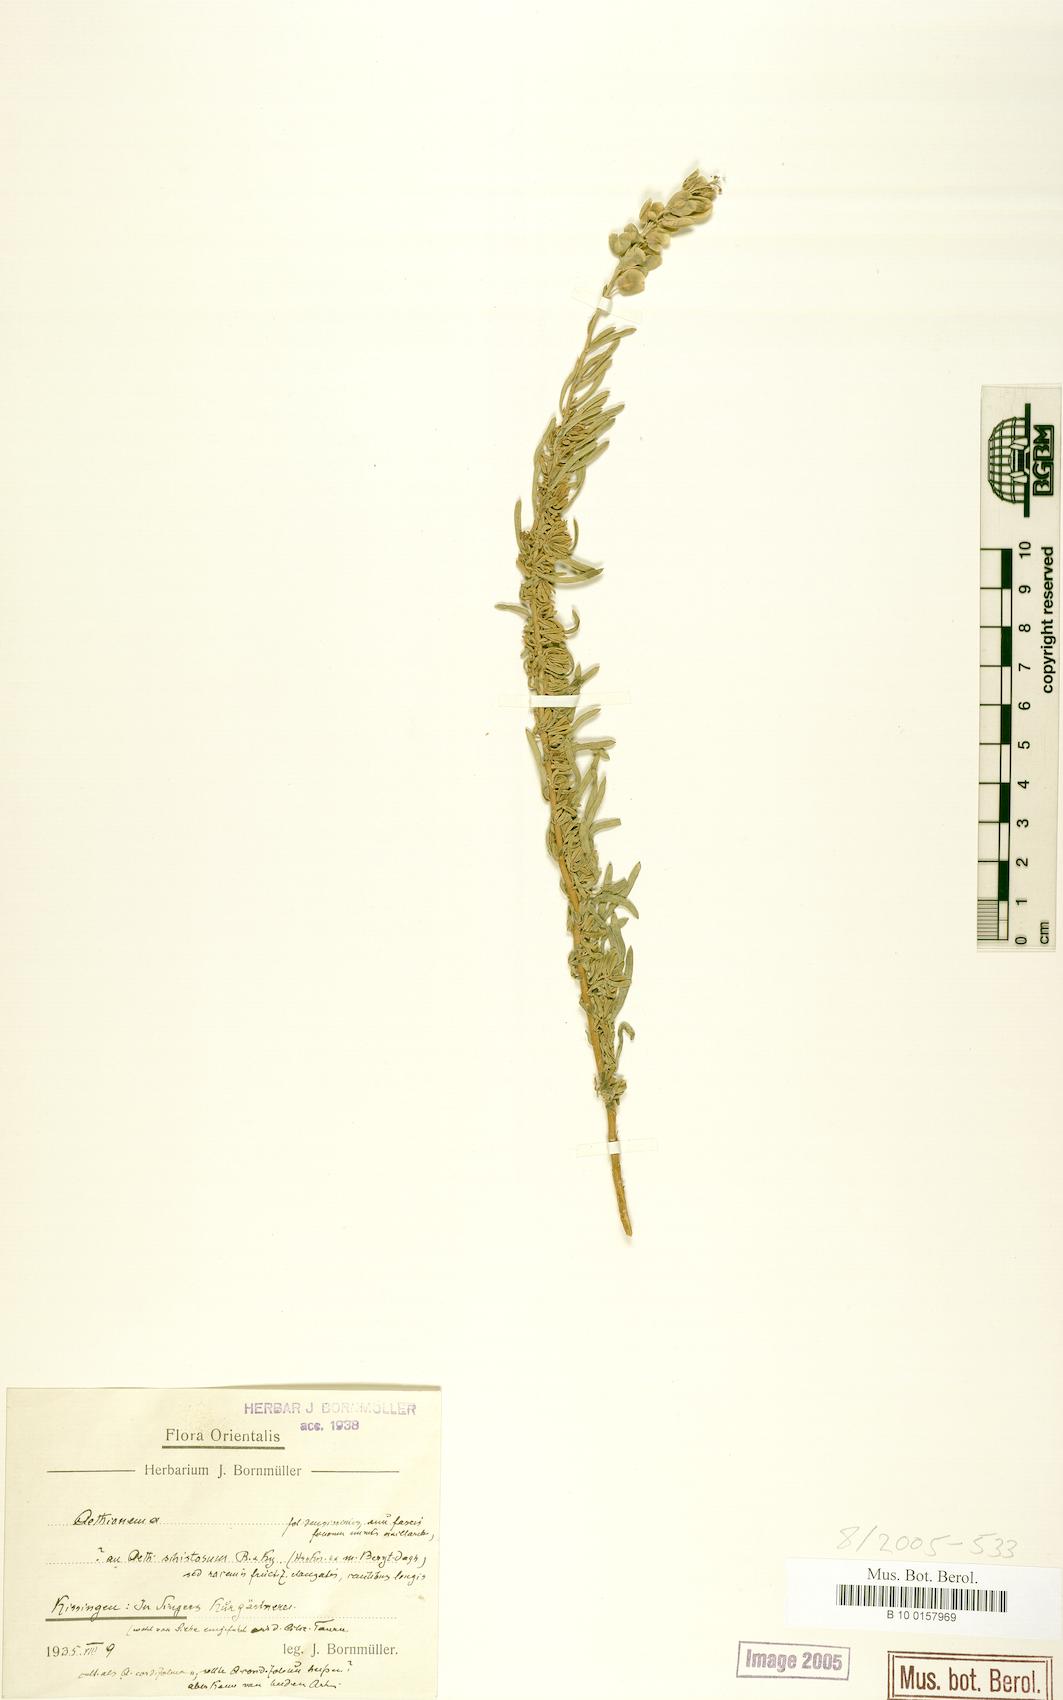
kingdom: Plantae
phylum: Tracheophyta
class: Magnoliopsida
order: Brassicales
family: Brassicaceae
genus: Aethionema
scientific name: Aethionema
